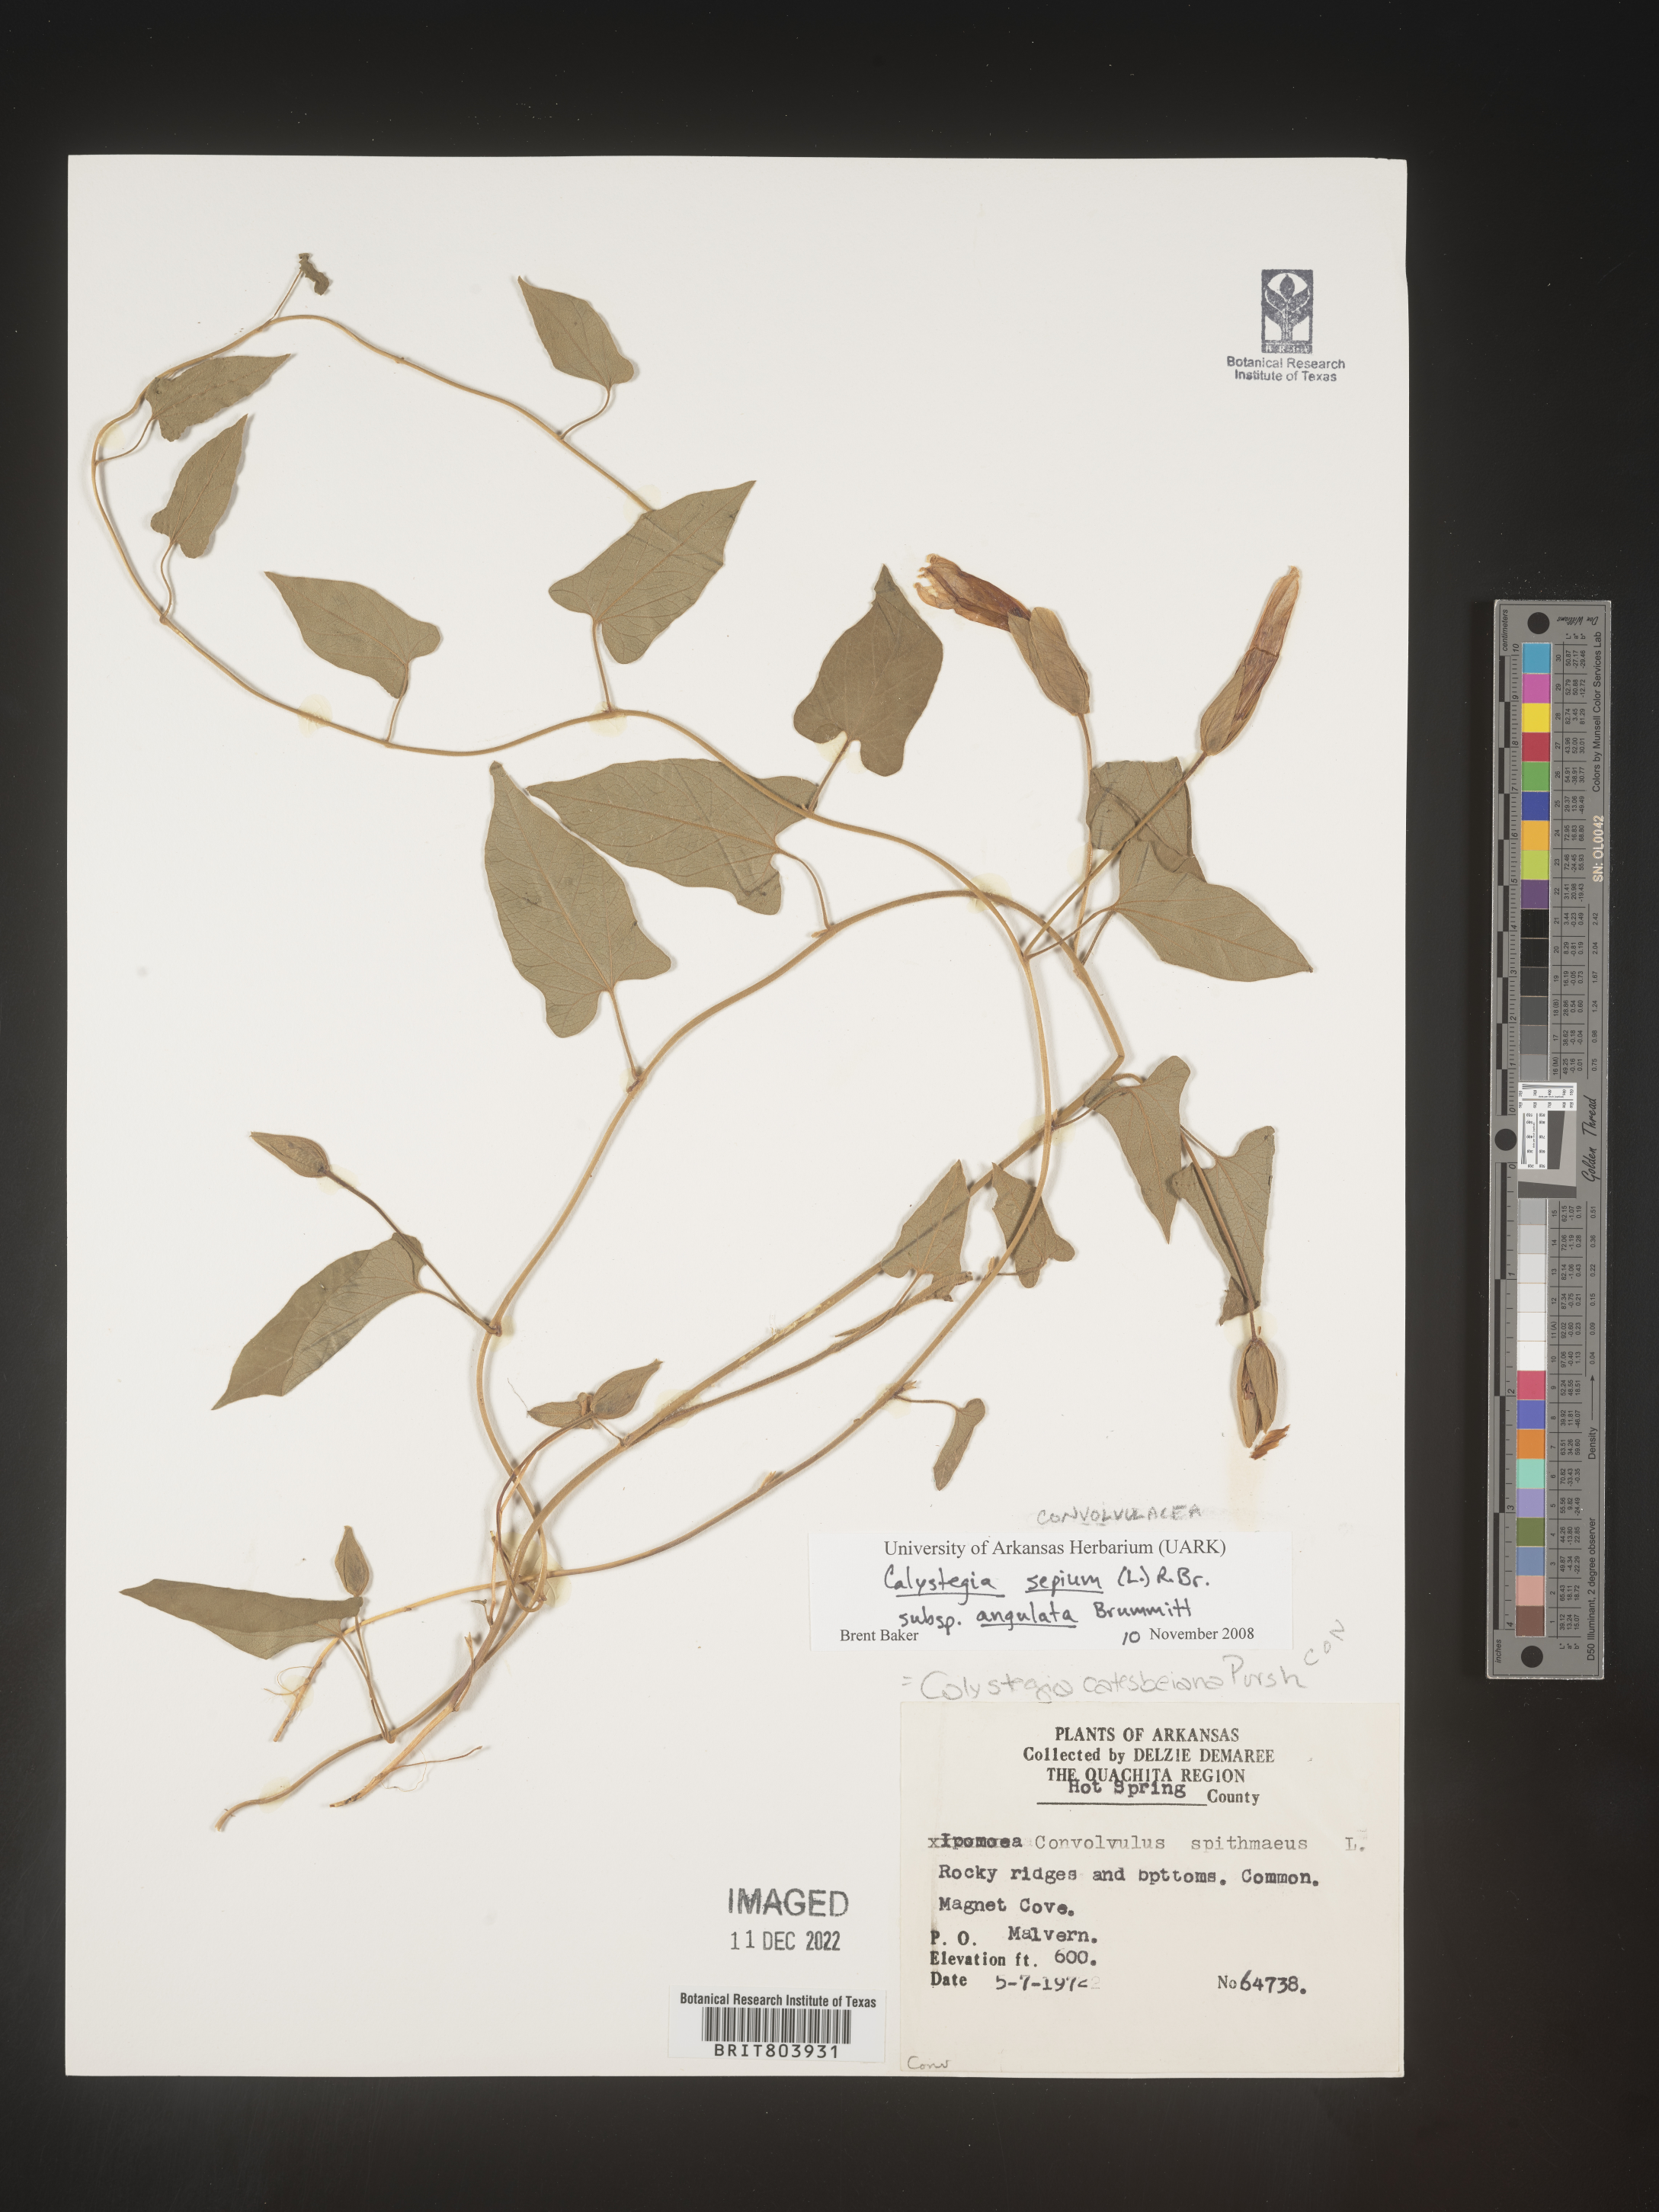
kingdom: Plantae
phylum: Tracheophyta
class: Magnoliopsida
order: Solanales
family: Convolvulaceae
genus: Calystegia
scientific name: Calystegia sepium
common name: Hedge bindweed
